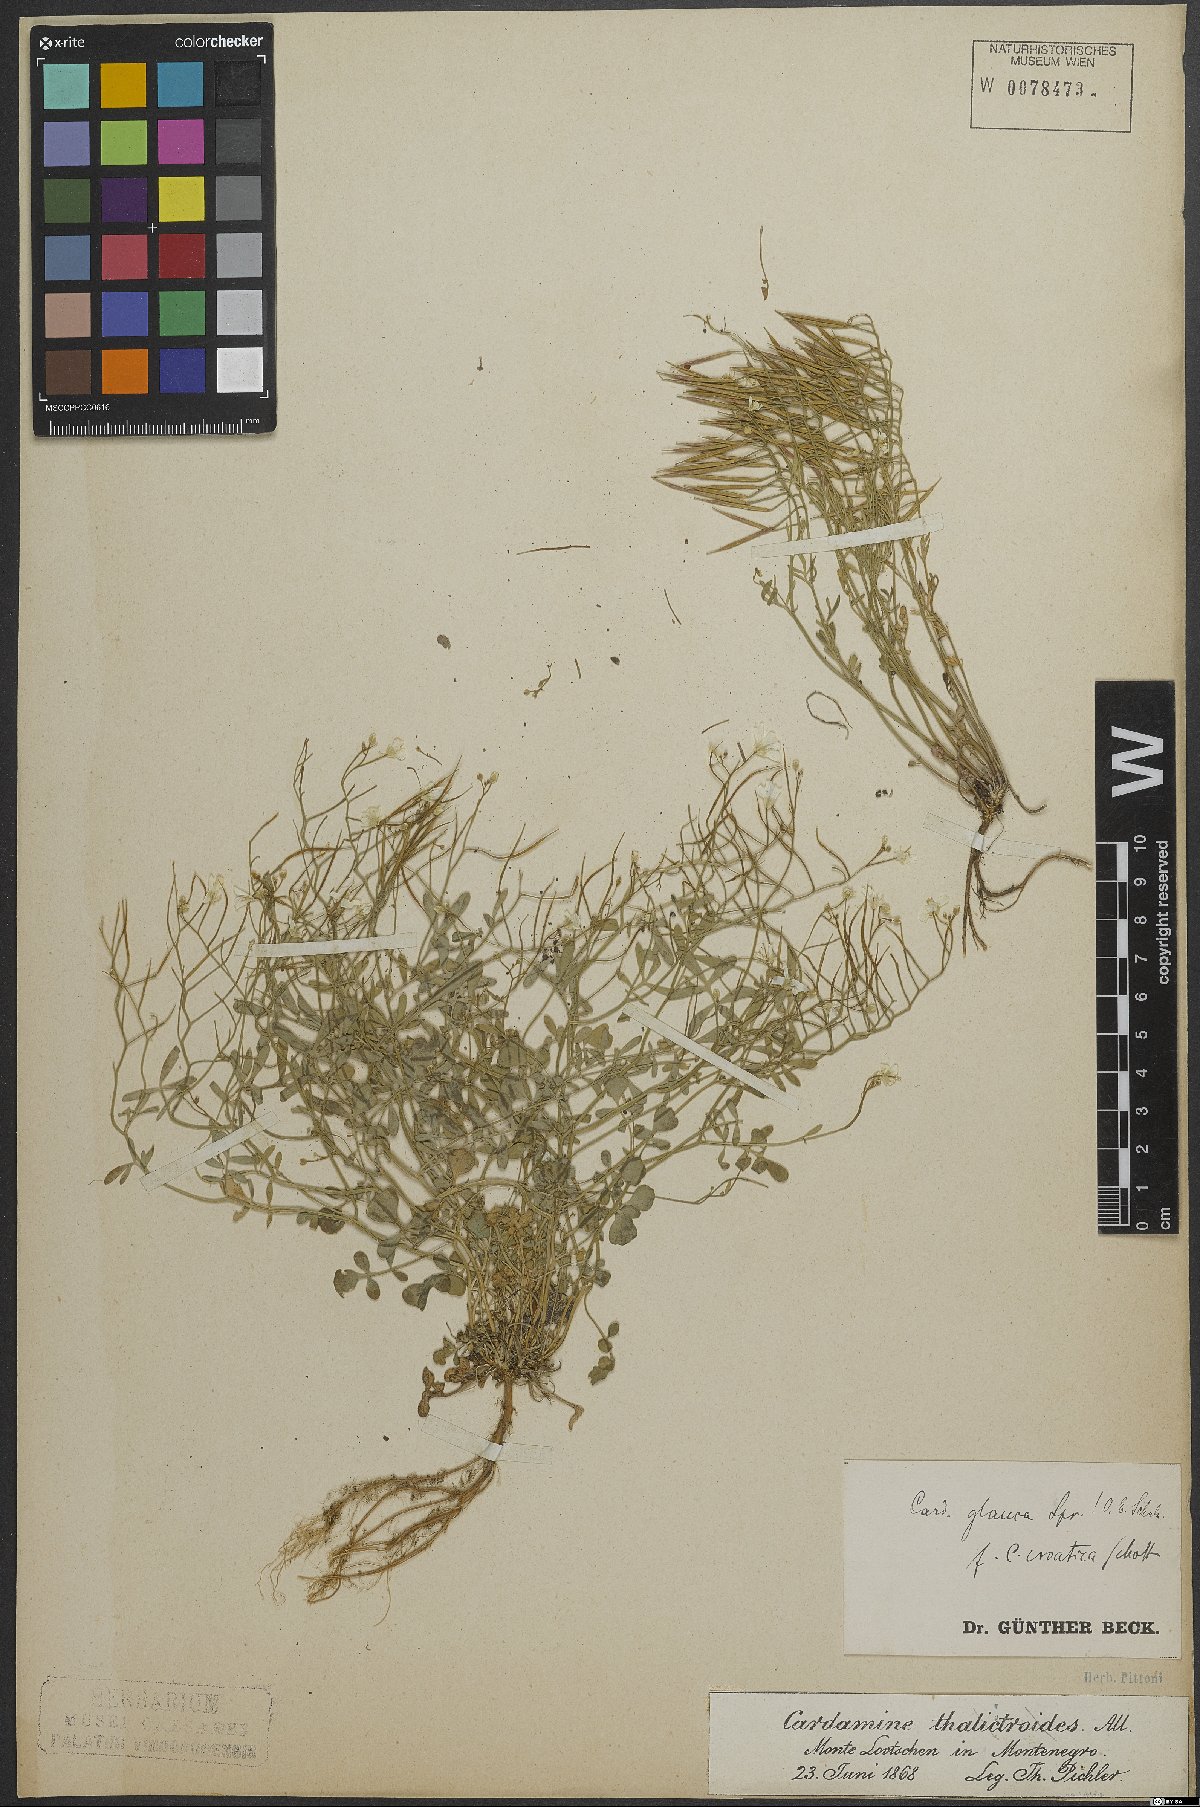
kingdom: Plantae
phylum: Tracheophyta
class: Magnoliopsida
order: Brassicales
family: Brassicaceae
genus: Cardamine
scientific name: Cardamine glauca
